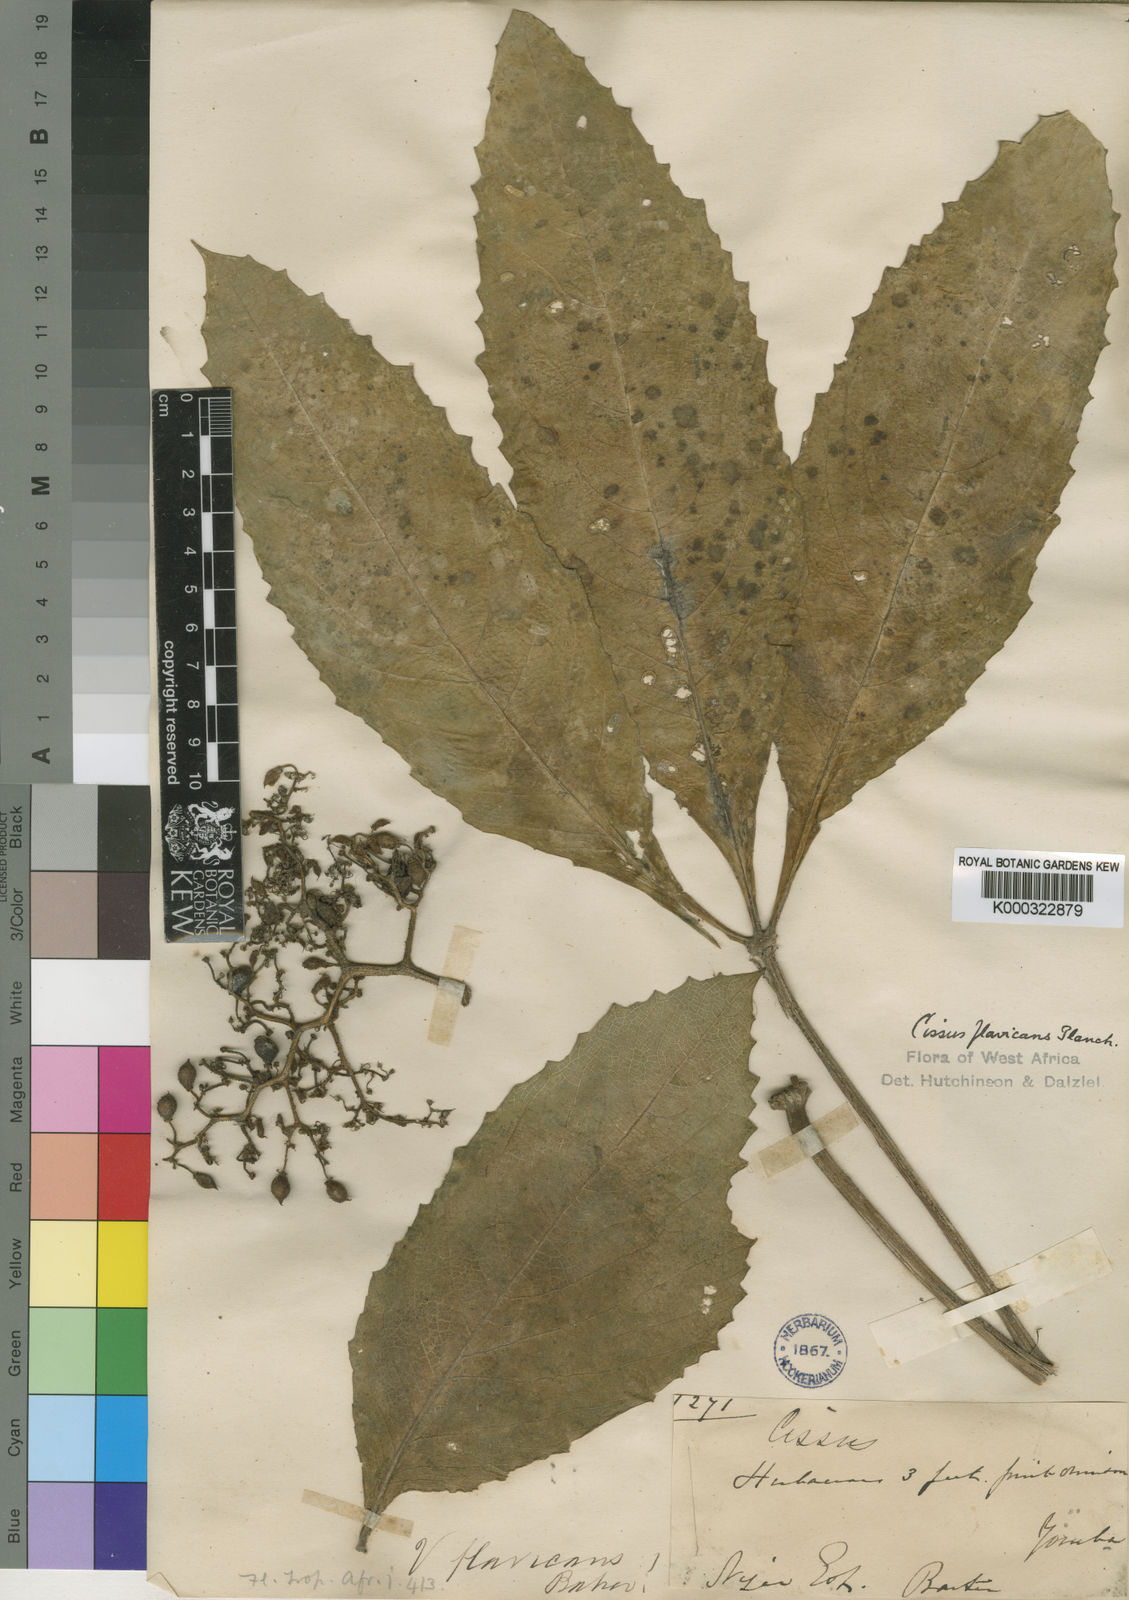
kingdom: Plantae
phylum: Tracheophyta
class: Magnoliopsida
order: Vitales
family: Vitaceae
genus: Cyphostemma
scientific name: Cyphostemma flavicans
